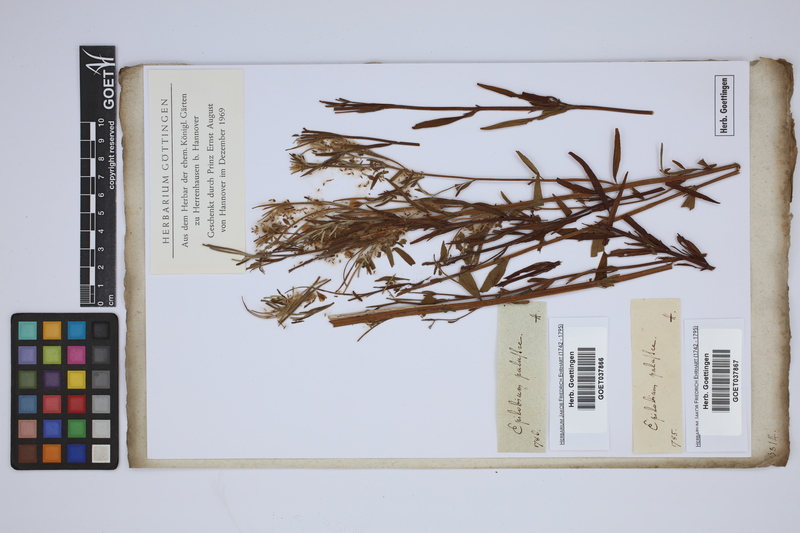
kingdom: Plantae
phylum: Tracheophyta
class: Magnoliopsida
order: Myrtales
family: Onagraceae
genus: Epilobium
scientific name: Epilobium palustre
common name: Marsh willowherb
